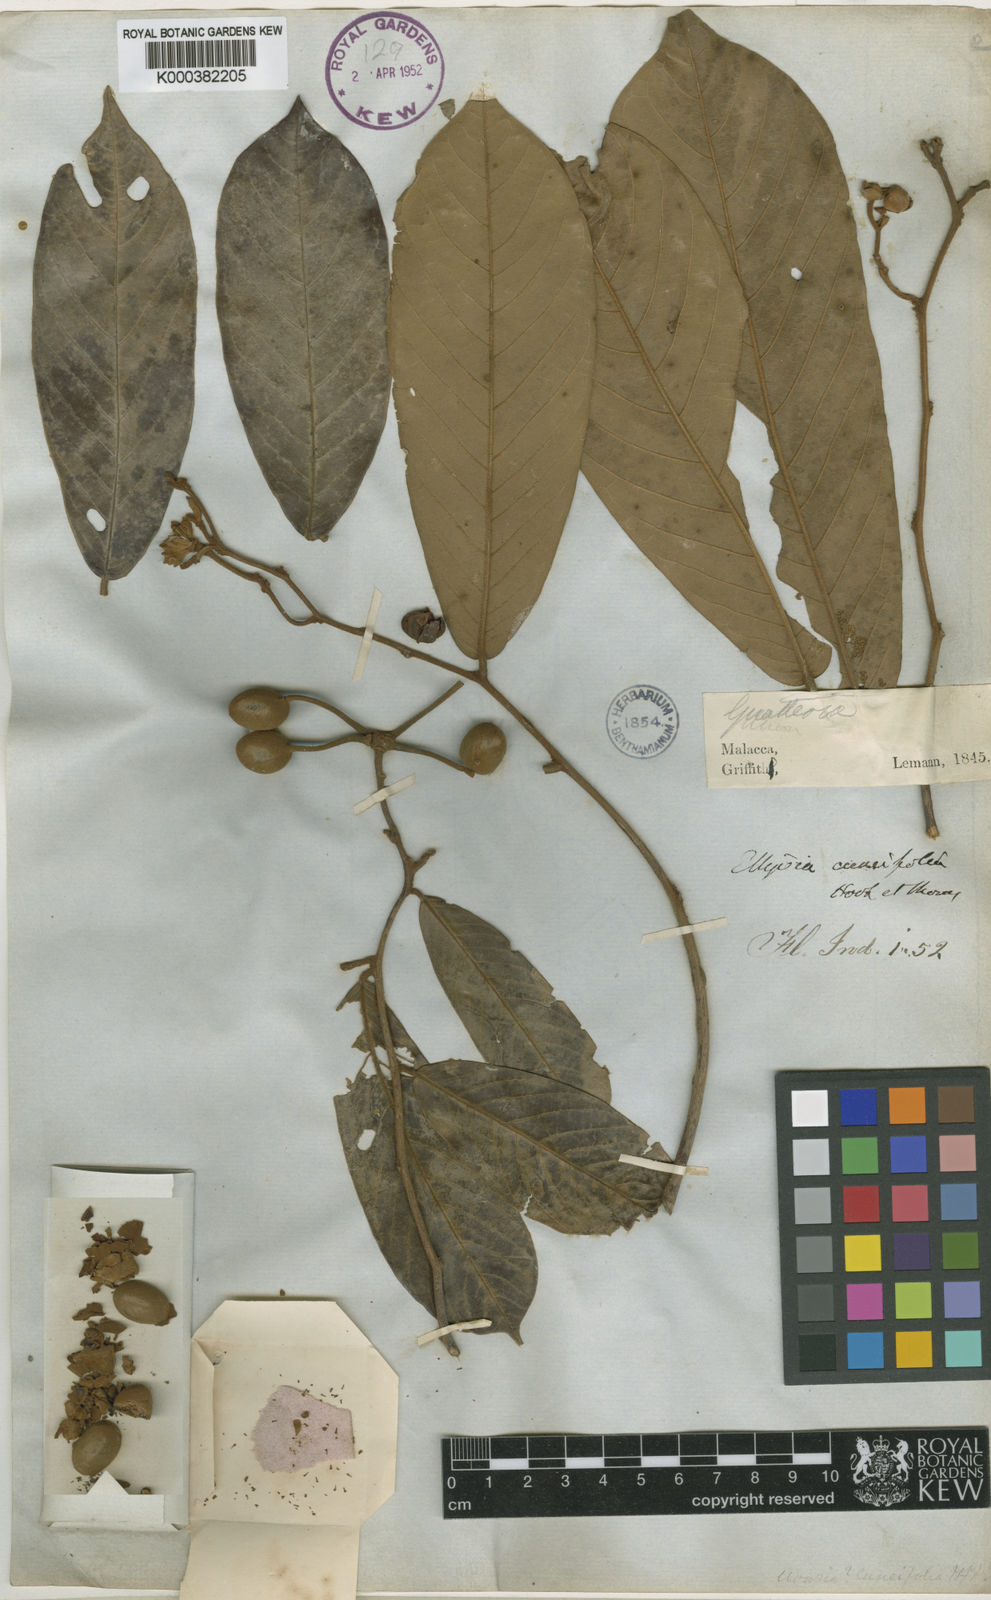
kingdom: Plantae
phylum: Tracheophyta
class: Magnoliopsida
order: Magnoliales
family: Annonaceae
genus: Uvaria
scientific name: Uvaria cuneifolia
